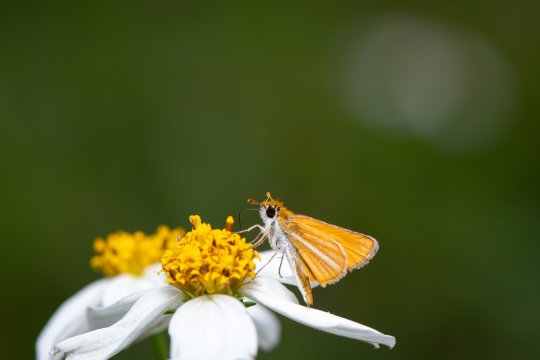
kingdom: Animalia
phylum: Arthropoda
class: Insecta
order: Lepidoptera
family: Hesperiidae
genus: Copaeodes
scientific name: Copaeodes minima
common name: Southern Skipperling
